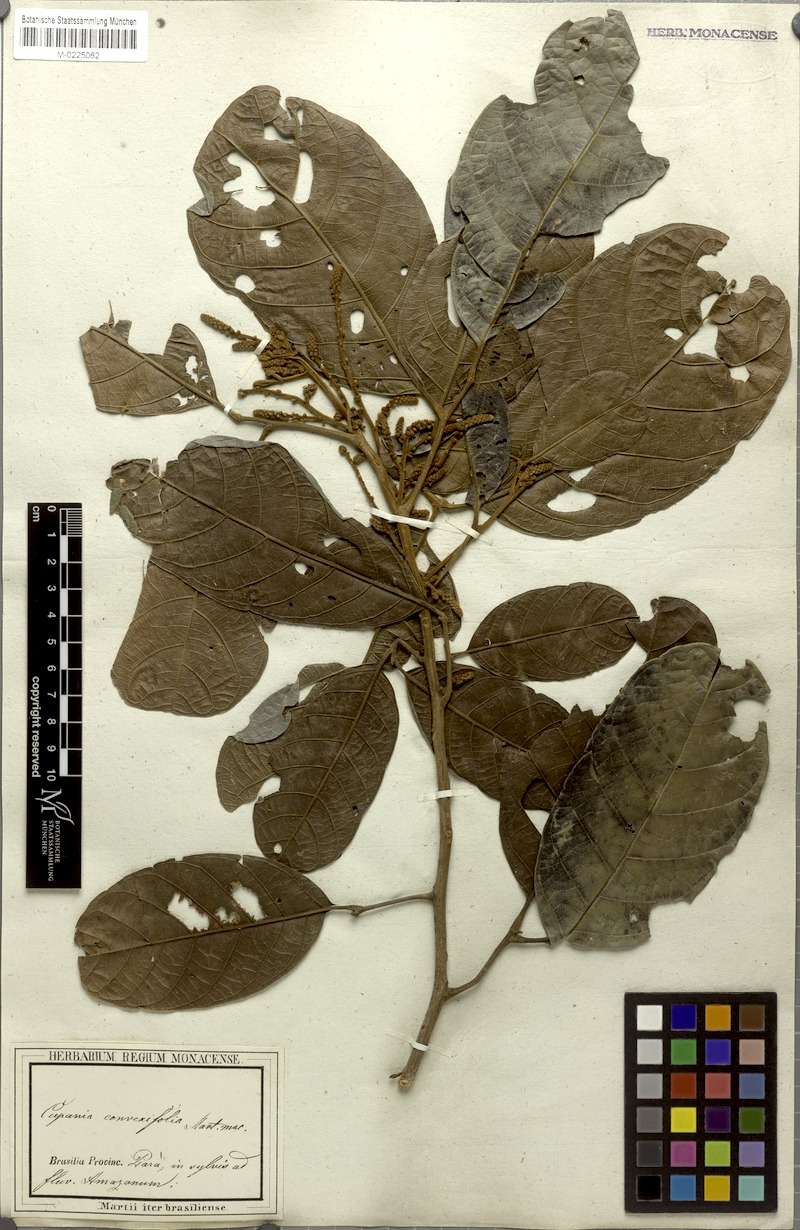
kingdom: Plantae
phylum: Tracheophyta
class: Magnoliopsida
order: Sapindales
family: Sapindaceae
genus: Cupania
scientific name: Cupania diphylla
